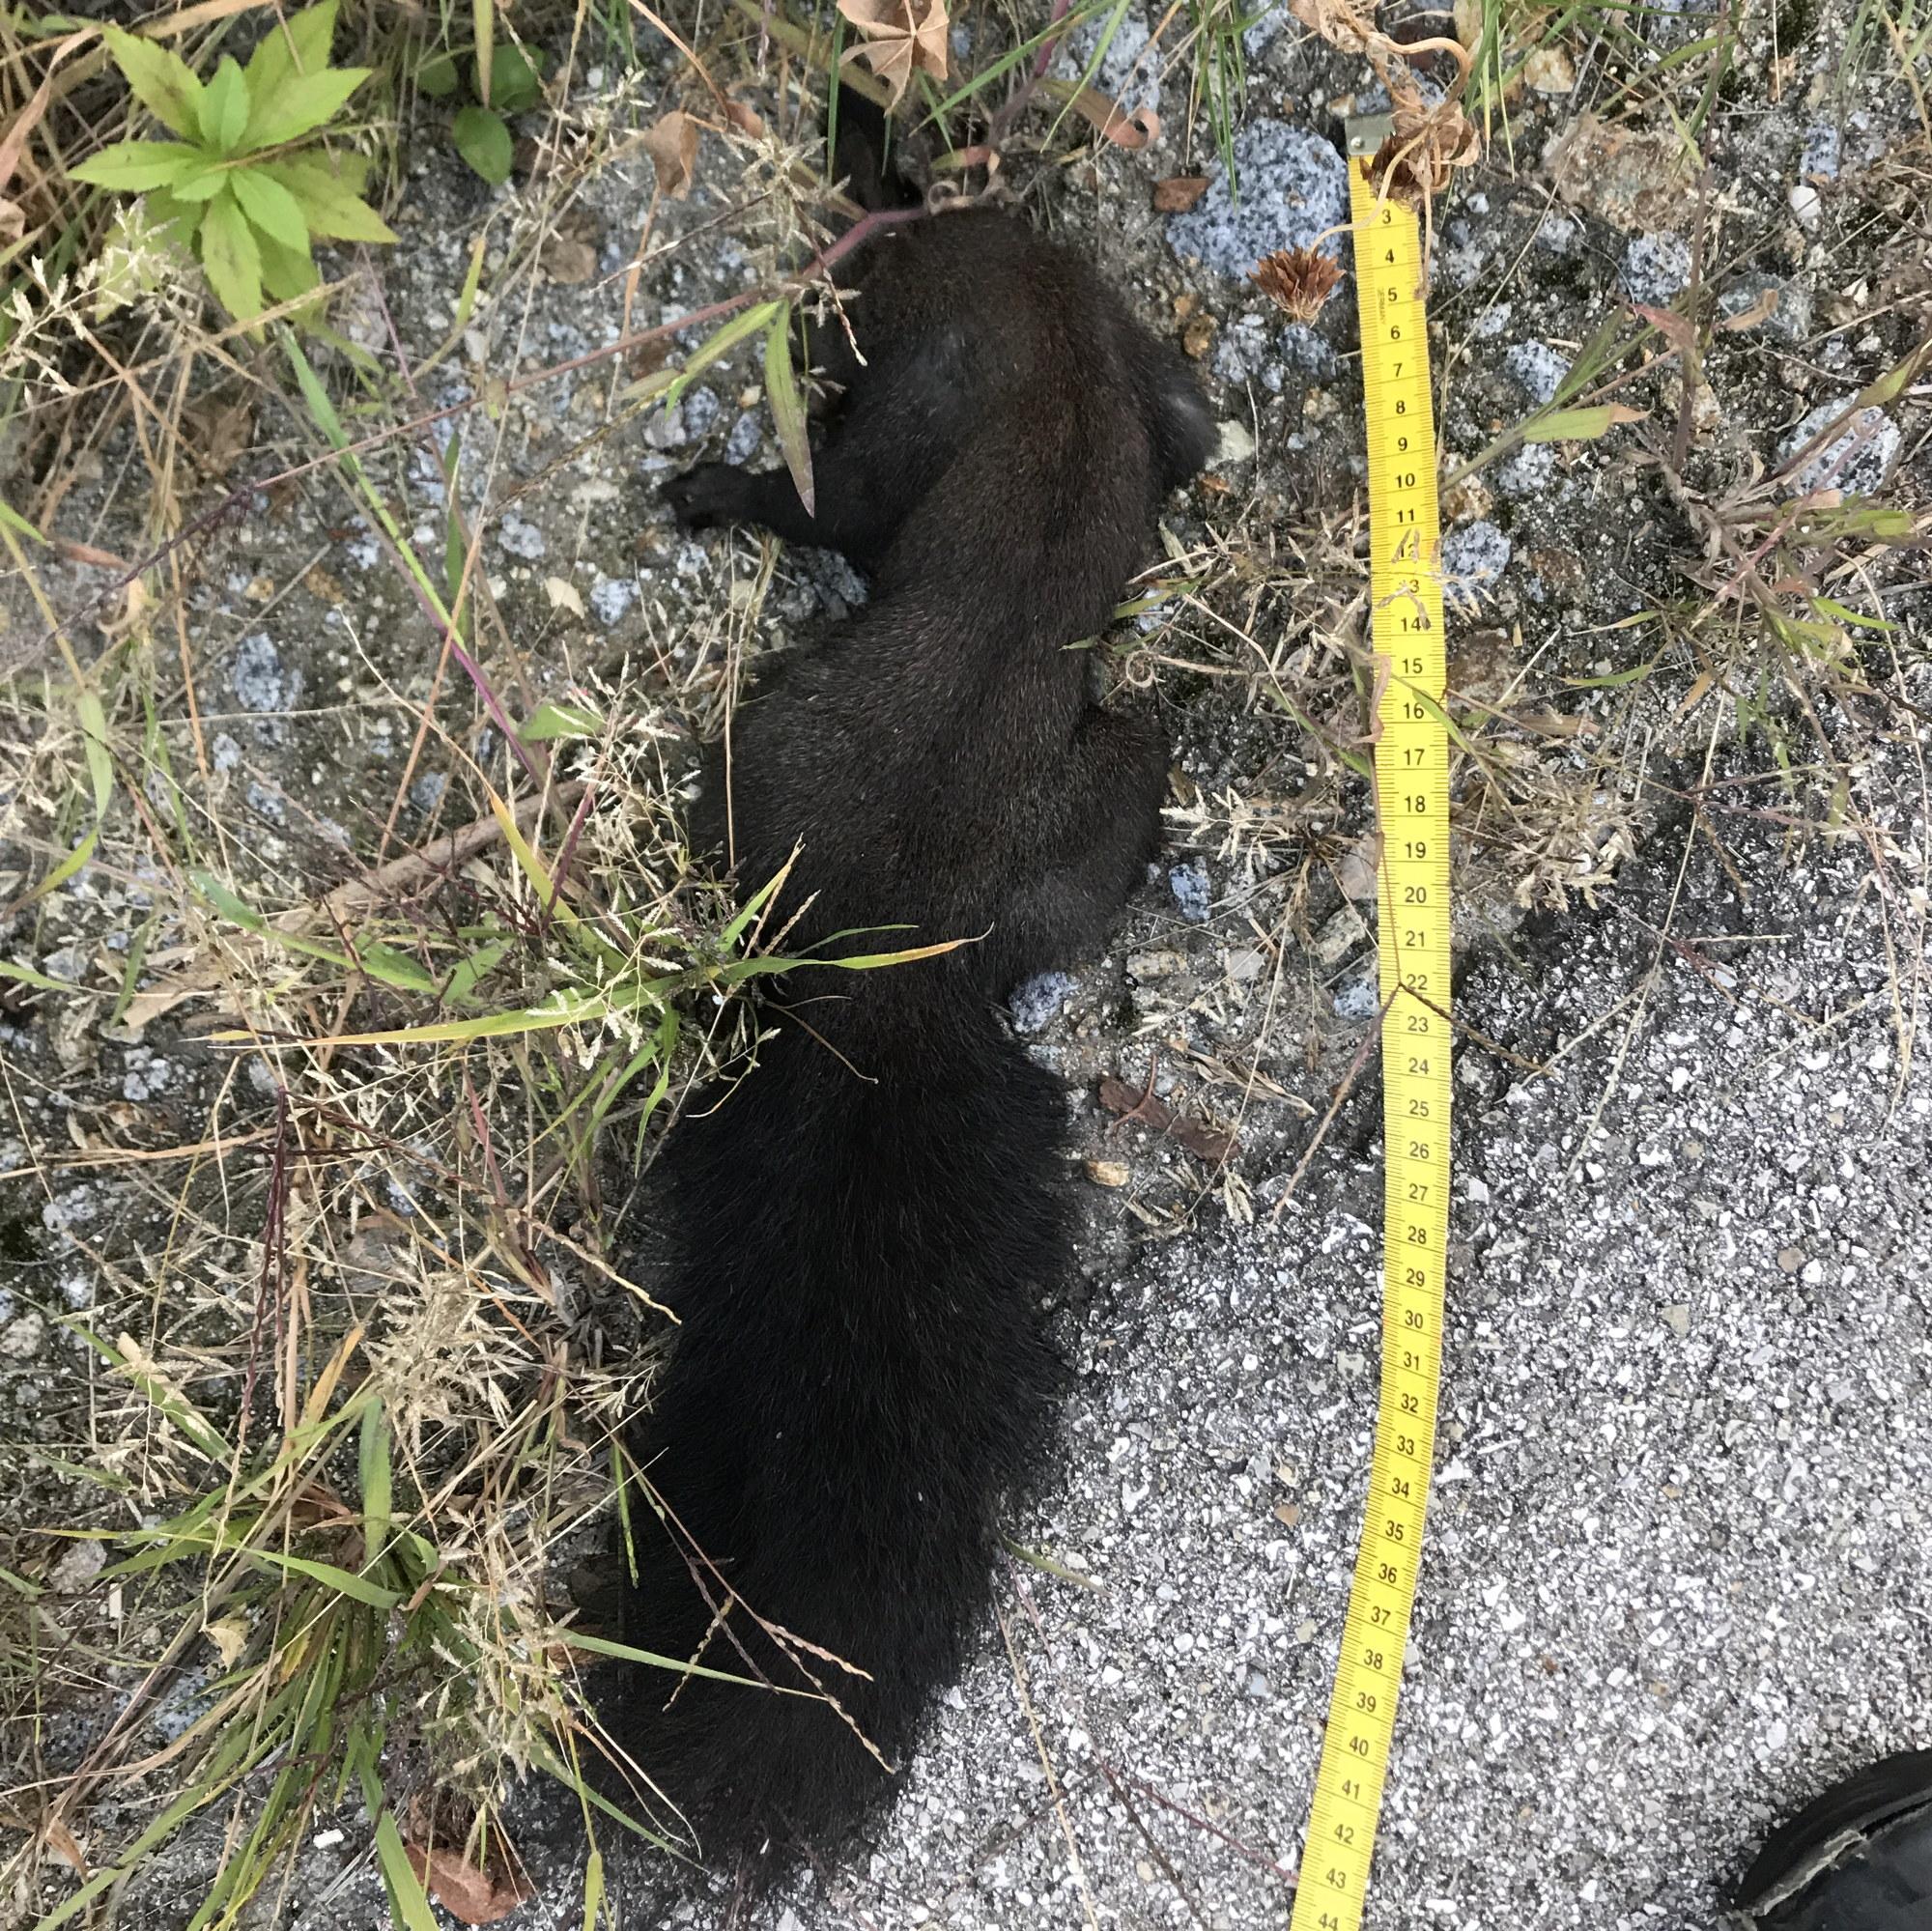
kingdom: Animalia
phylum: Chordata
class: Mammalia
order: Rodentia
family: Sciuridae
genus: Sciurus
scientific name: Sciurus vulgaris
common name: Eurasian red squirrel
